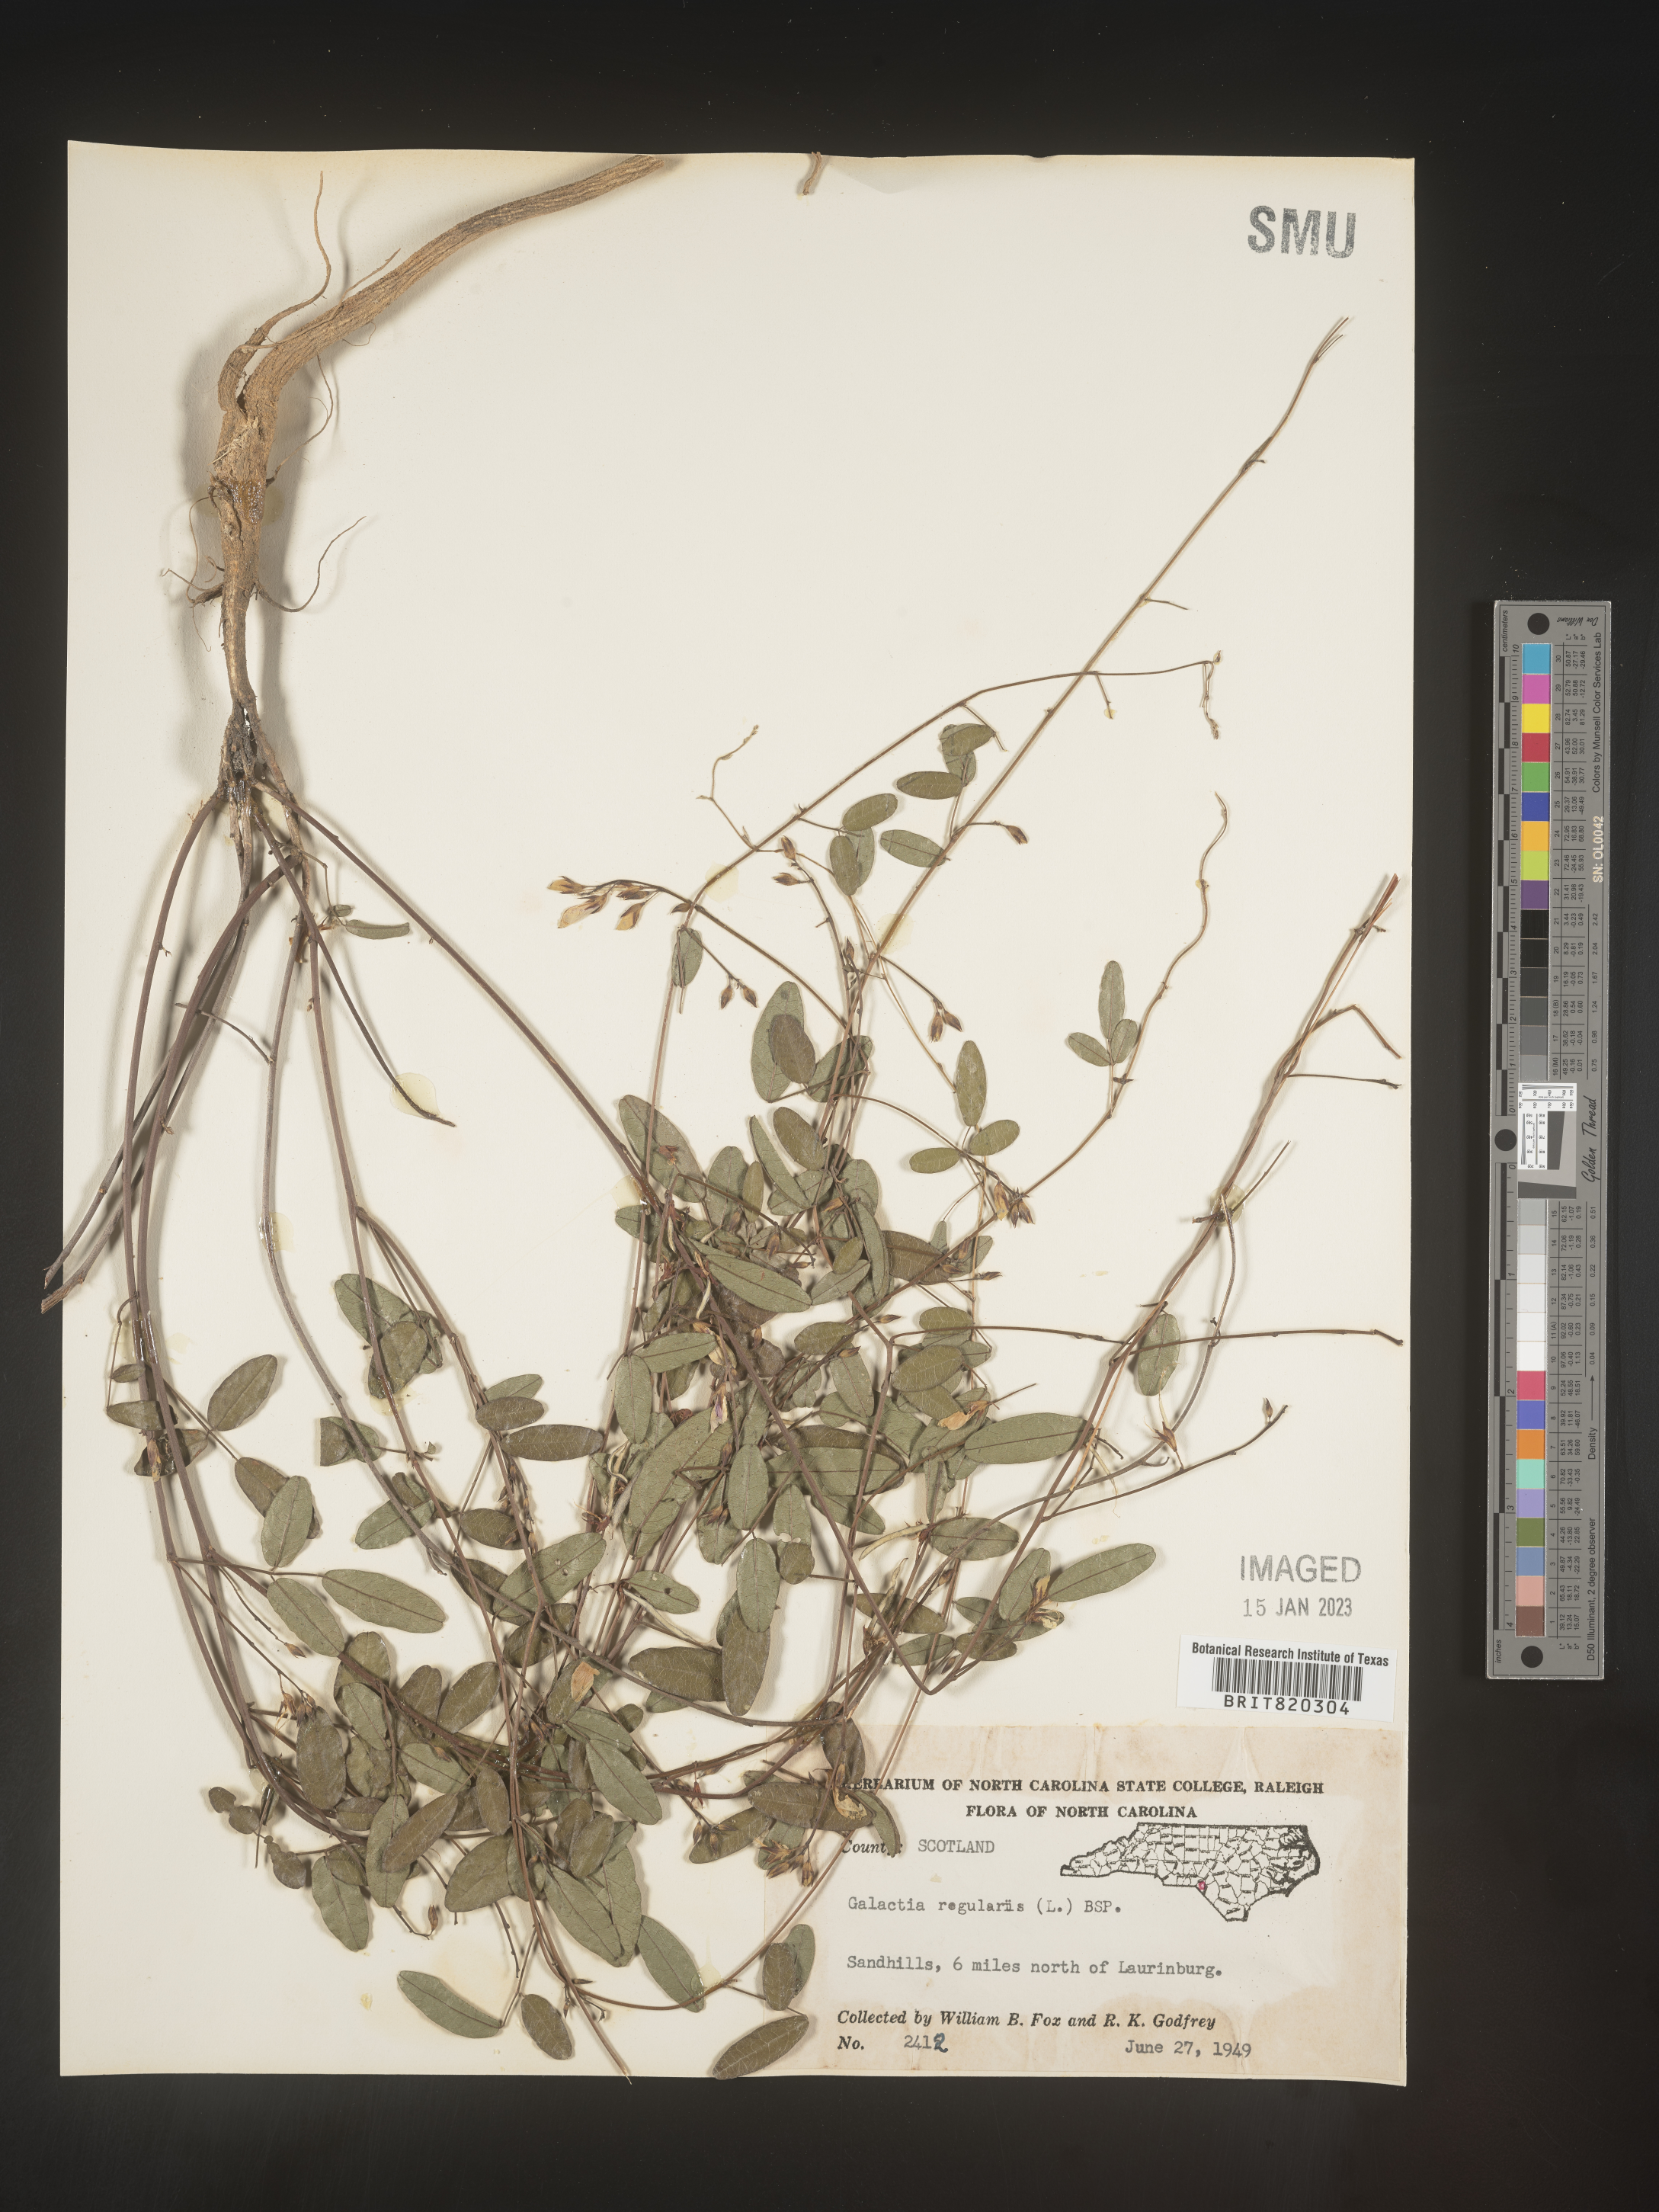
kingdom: Plantae
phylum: Tracheophyta
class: Magnoliopsida
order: Fabales
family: Fabaceae
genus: Galactia
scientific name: Galactia regularis
